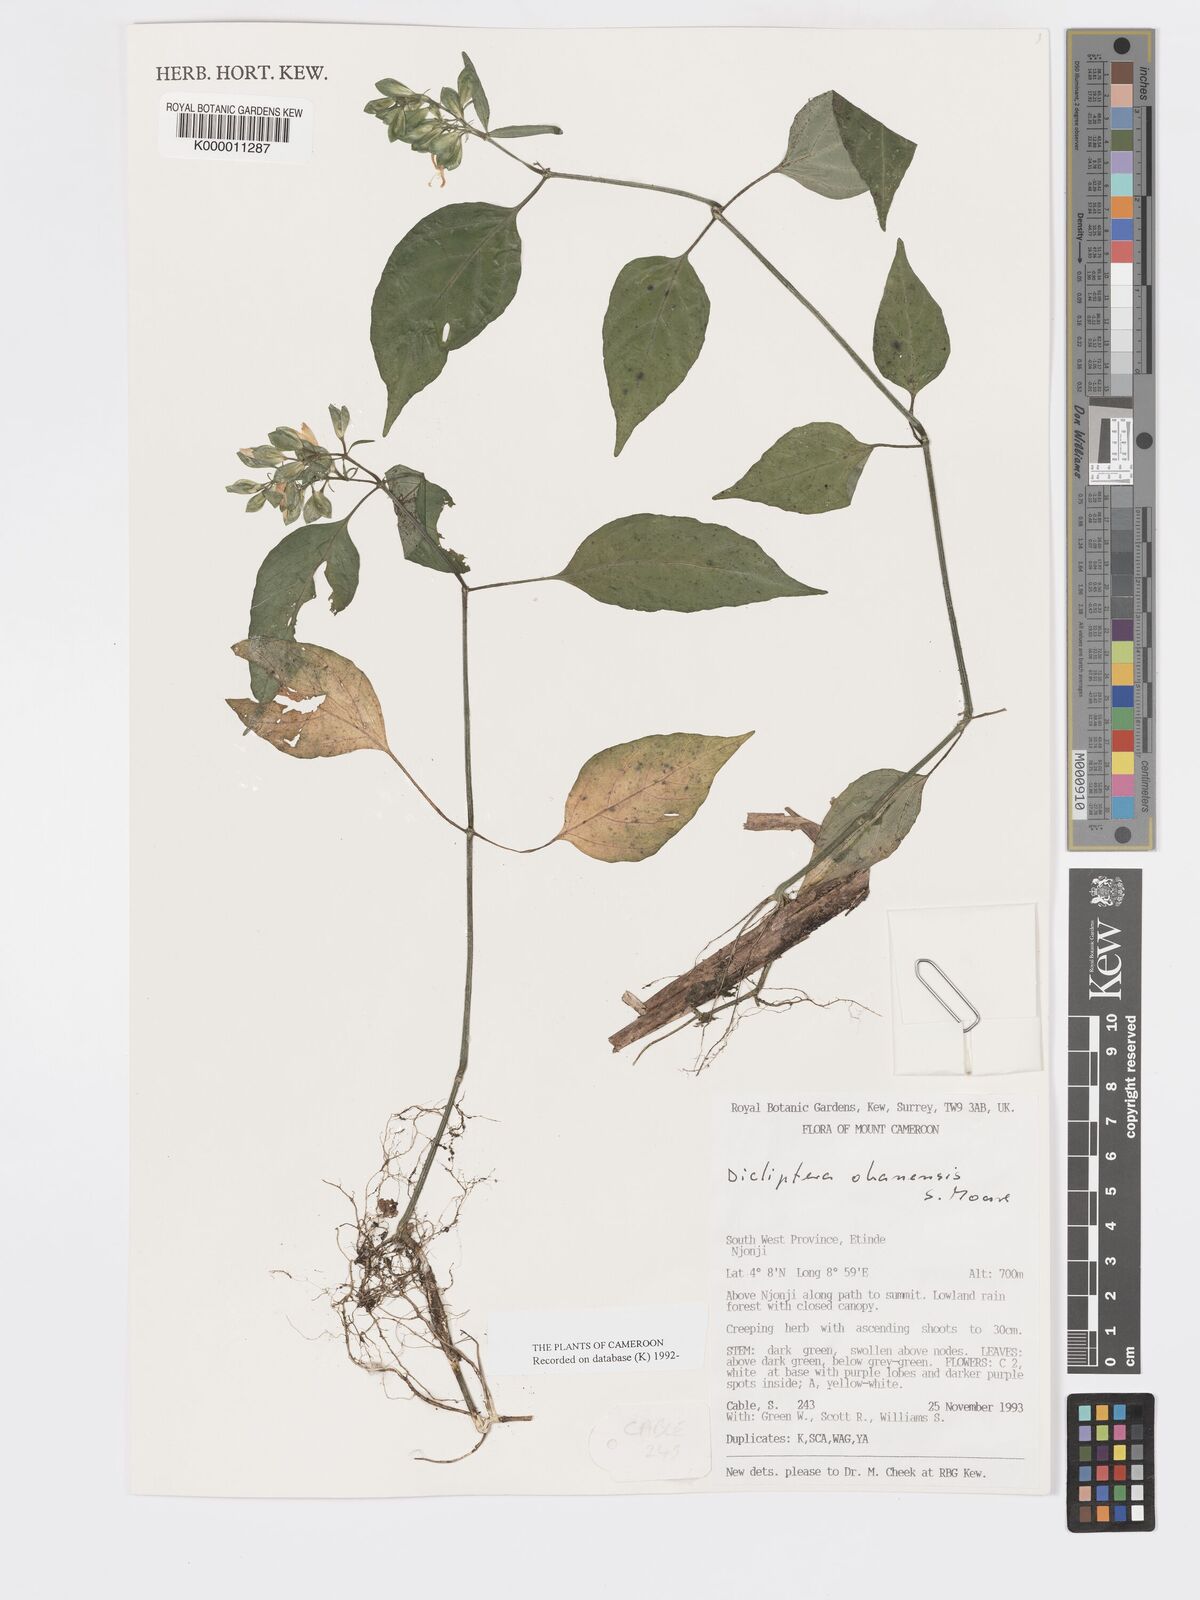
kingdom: Plantae
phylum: Tracheophyta
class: Magnoliopsida
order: Lamiales
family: Acanthaceae
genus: Dicliptera
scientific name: Dicliptera elliotii
